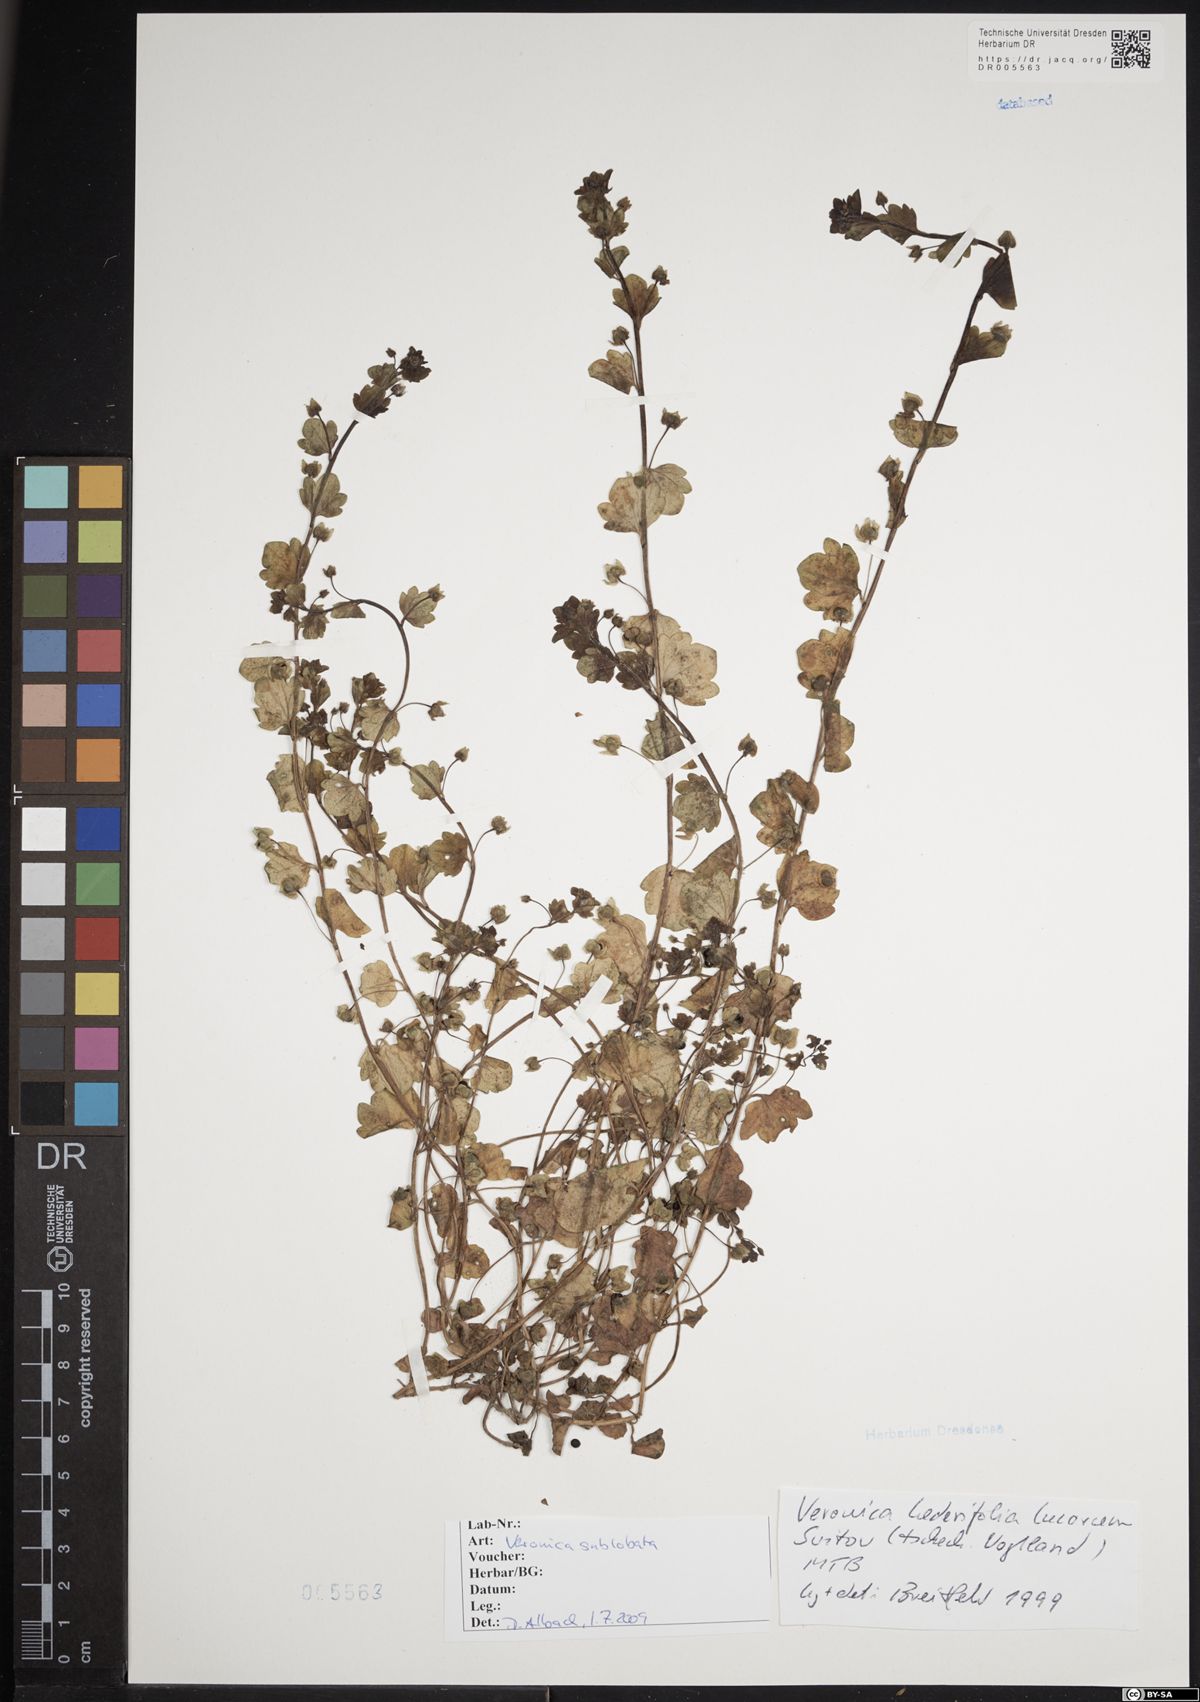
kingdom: Plantae
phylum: Tracheophyta
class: Magnoliopsida
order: Lamiales
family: Plantaginaceae
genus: Veronica
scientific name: Veronica sublobata
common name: False ivy-leaved speedwell
